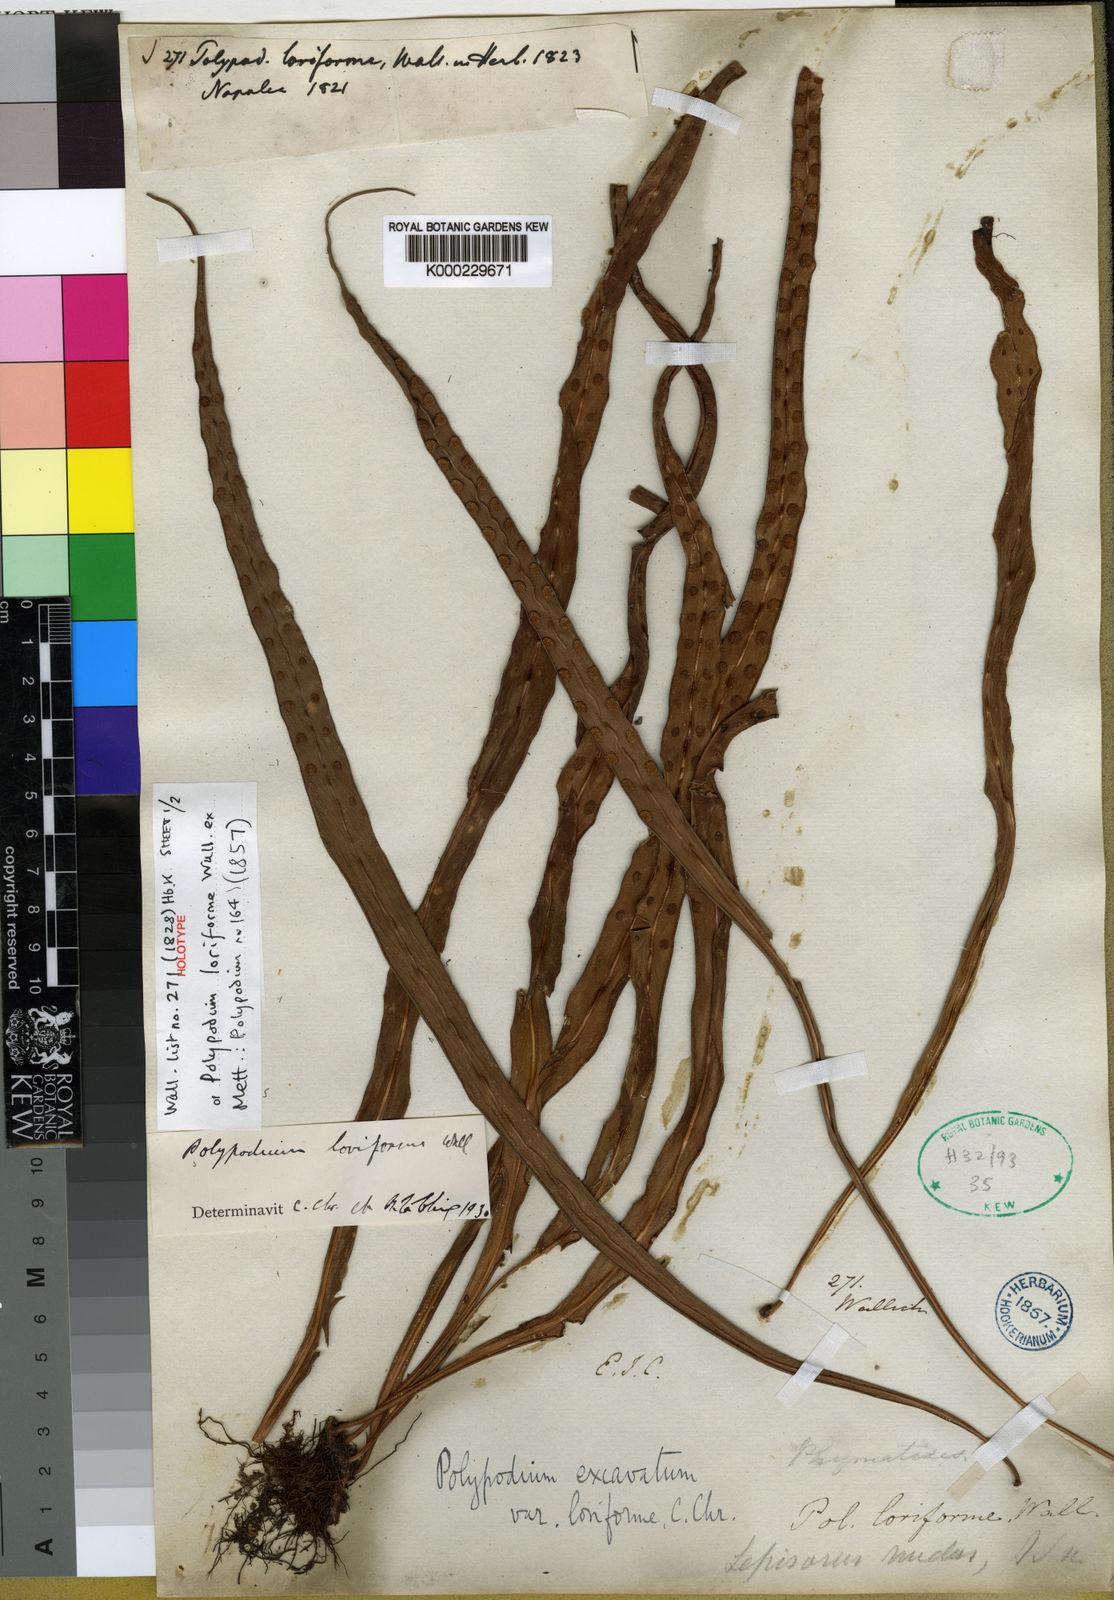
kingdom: Plantae
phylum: Tracheophyta
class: Polypodiopsida
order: Polypodiales
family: Polypodiaceae
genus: Lepisorus
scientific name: Lepisorus loriformis
